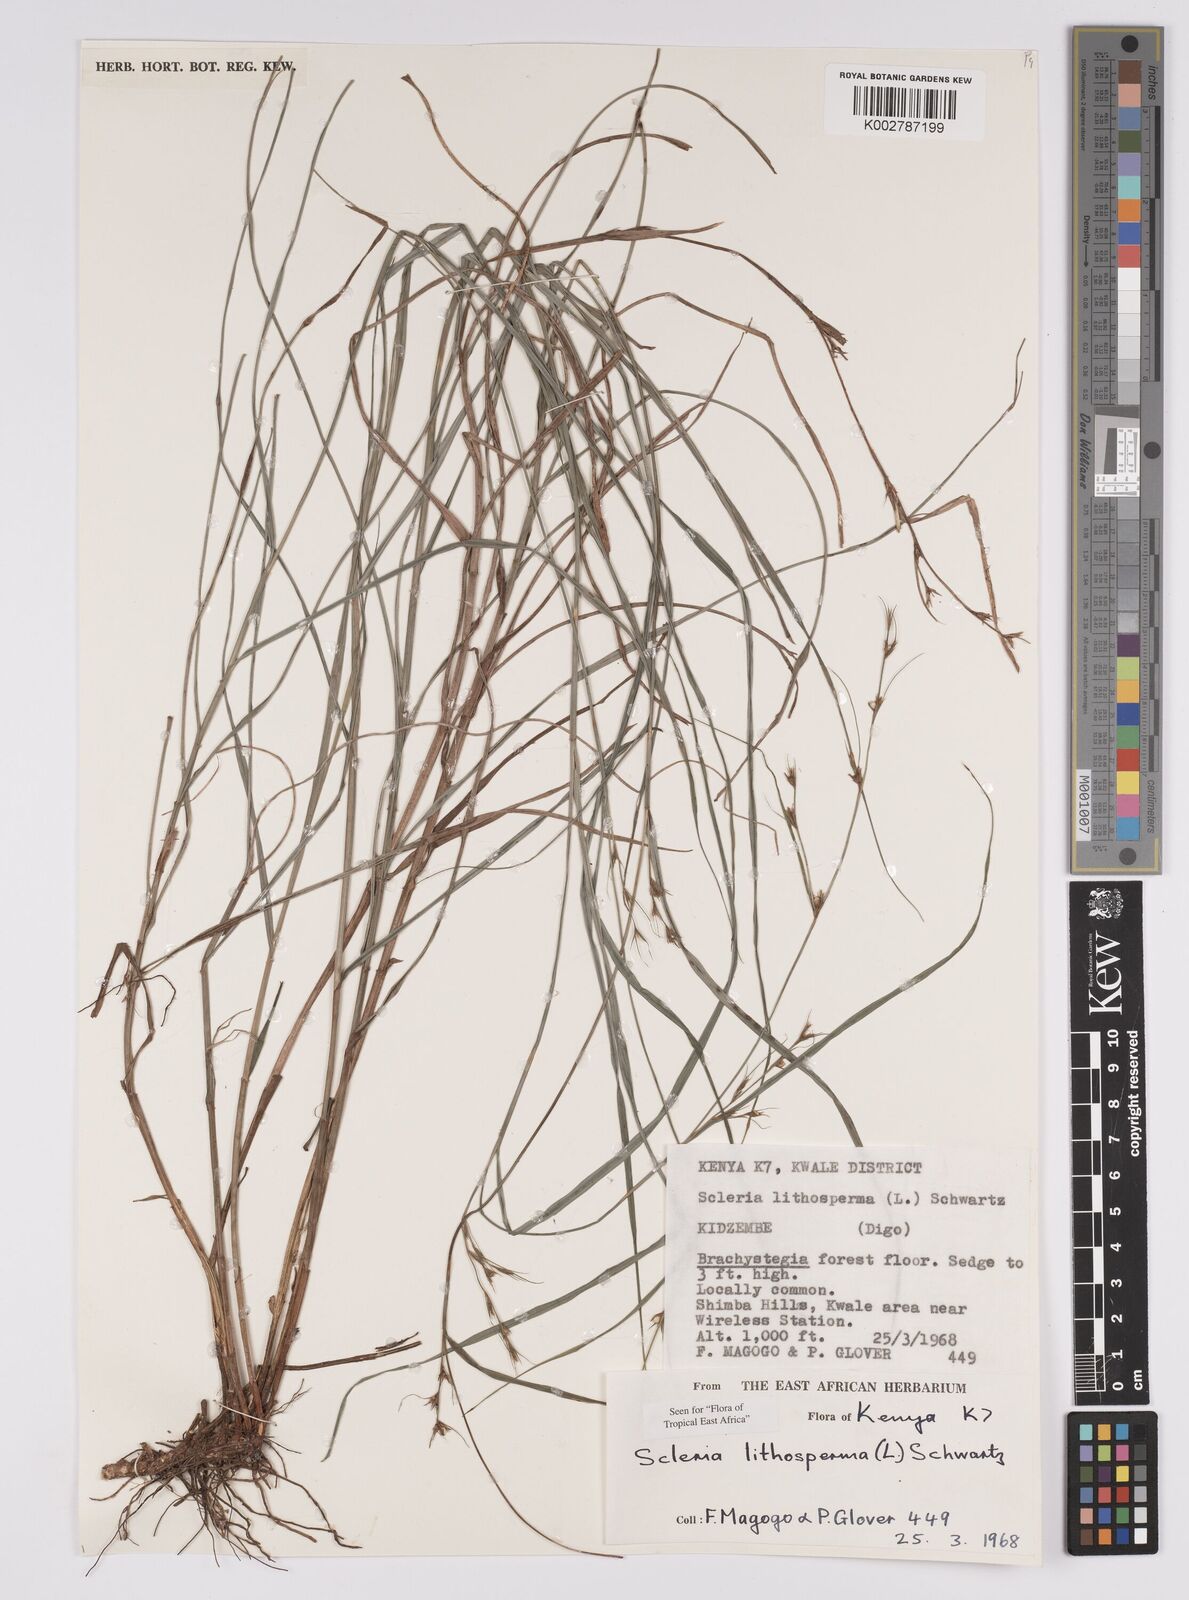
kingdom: Plantae
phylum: Tracheophyta
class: Liliopsida
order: Poales
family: Cyperaceae
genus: Scleria
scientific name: Scleria lithosperma
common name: Florida keys nut-rush
